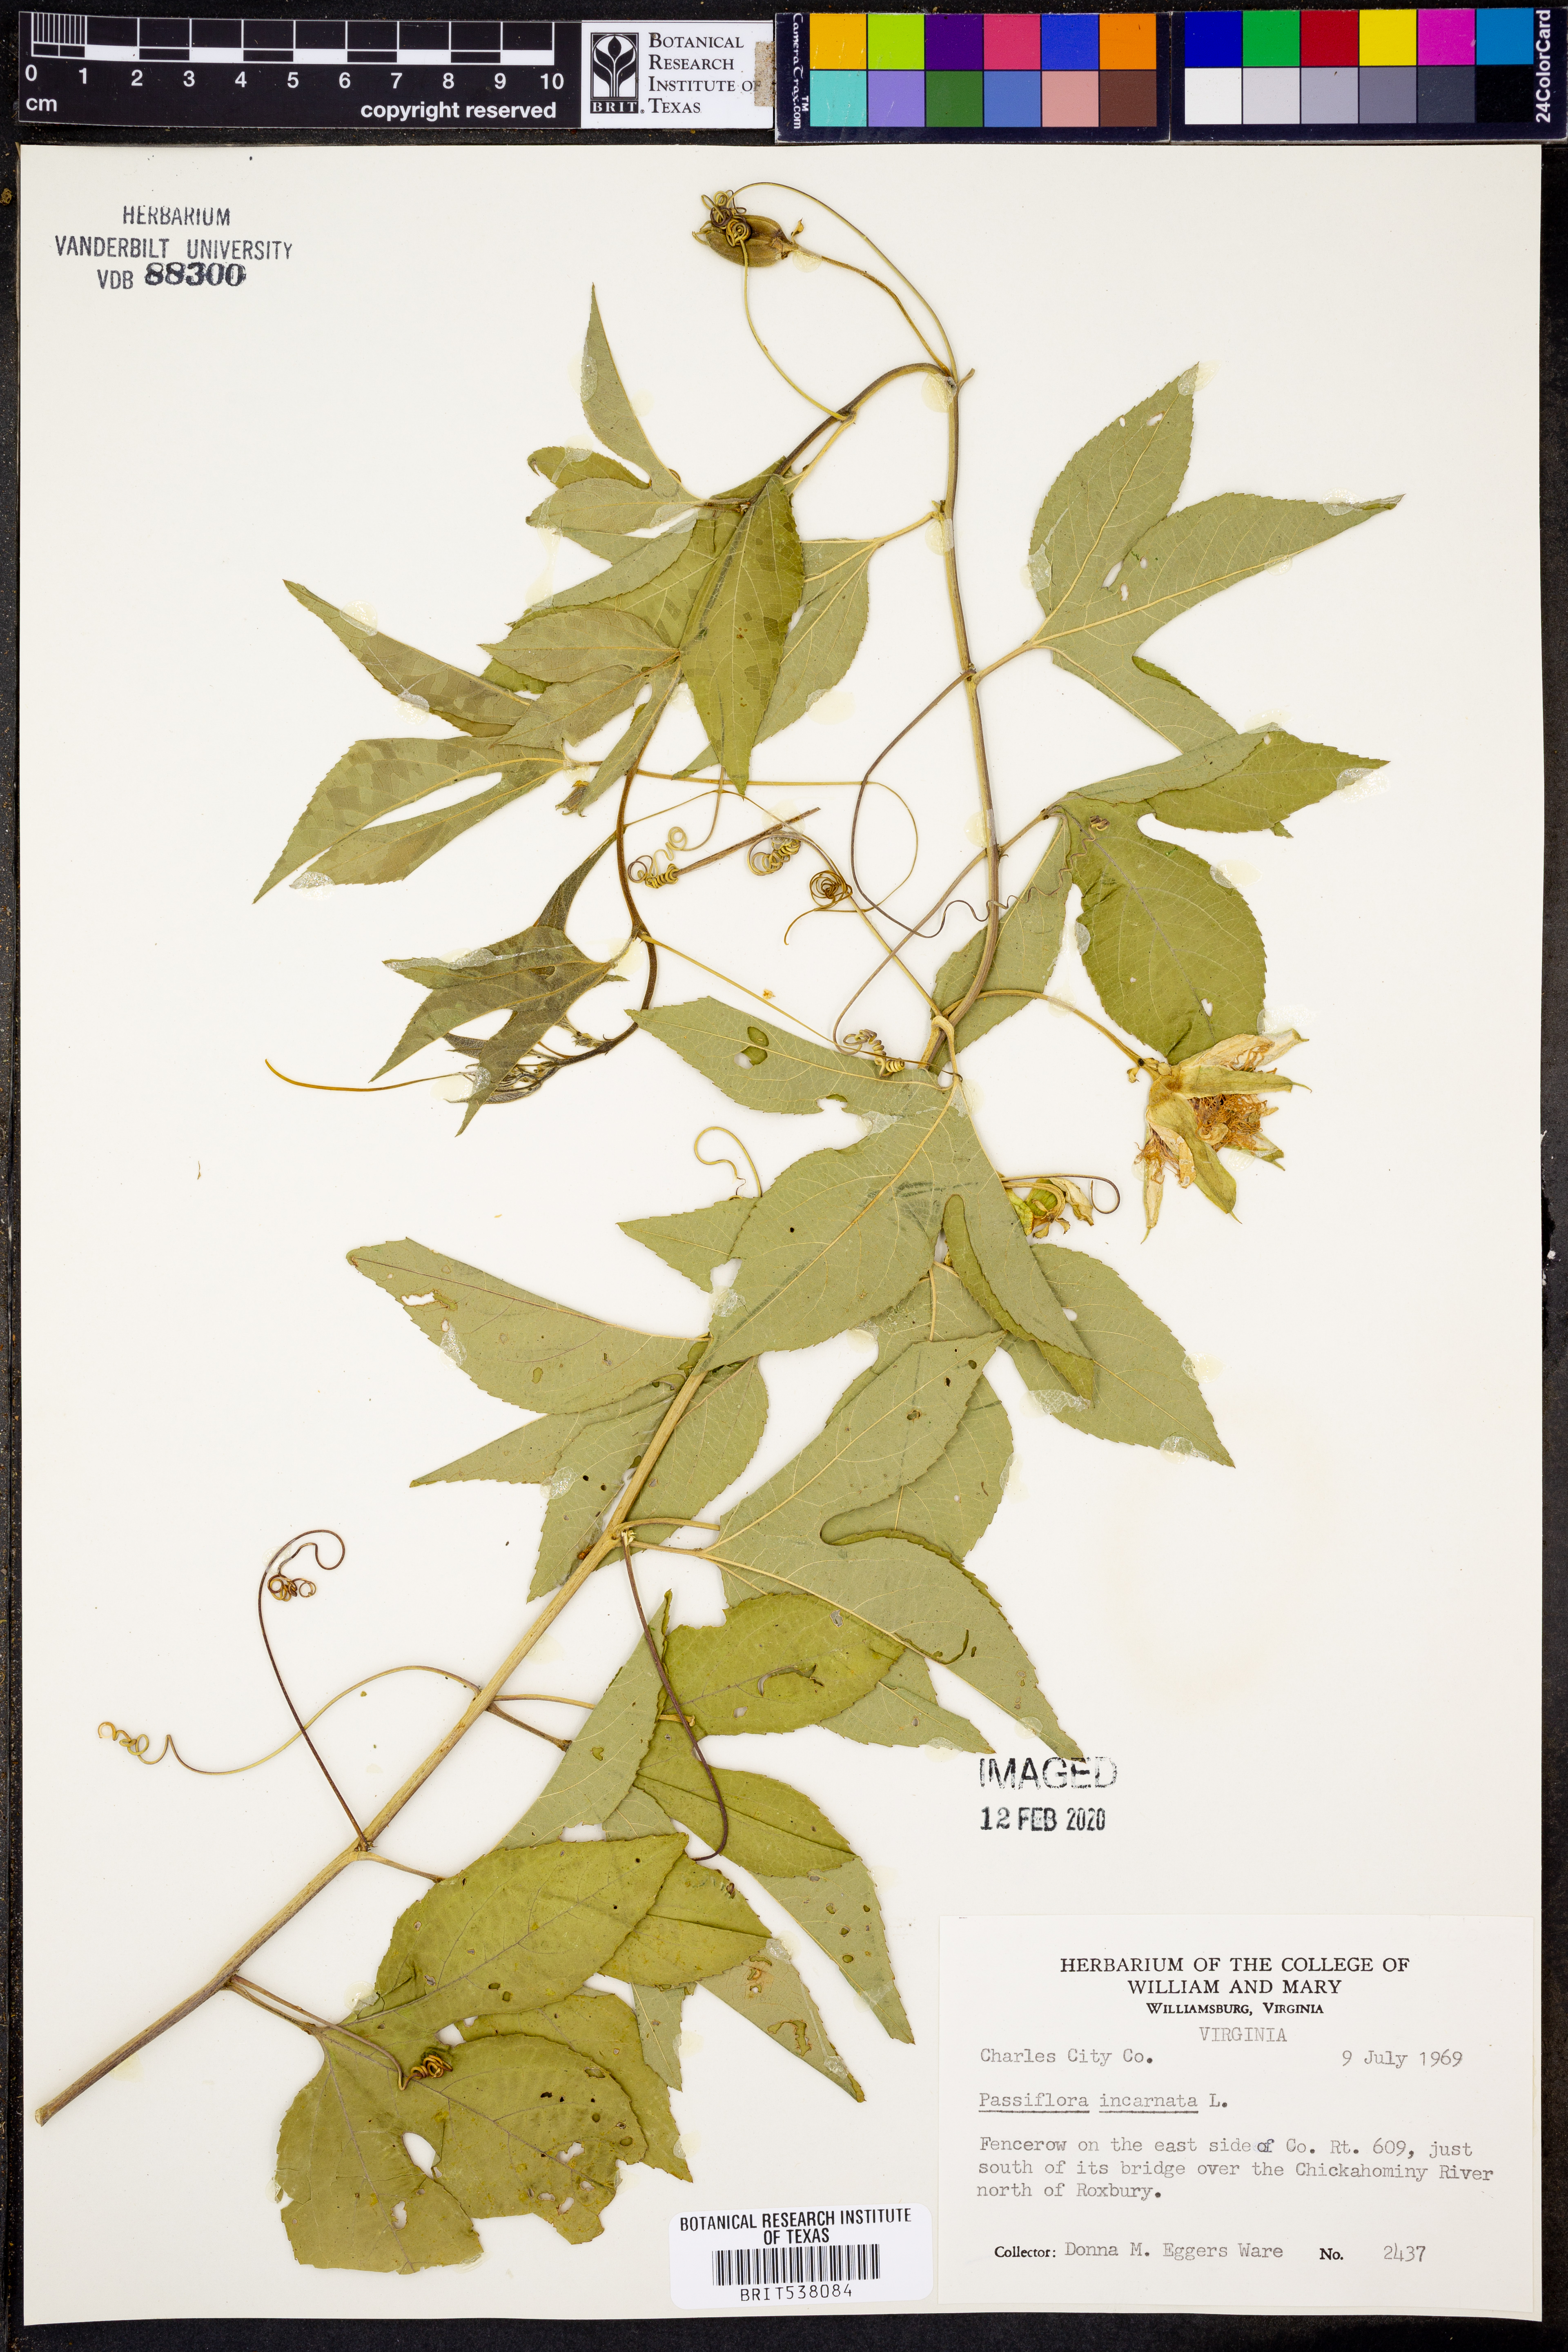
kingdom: Plantae
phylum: Tracheophyta
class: Magnoliopsida
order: Malpighiales
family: Passifloraceae
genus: Passiflora
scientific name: Passiflora incarnata
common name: Apricot-vine
